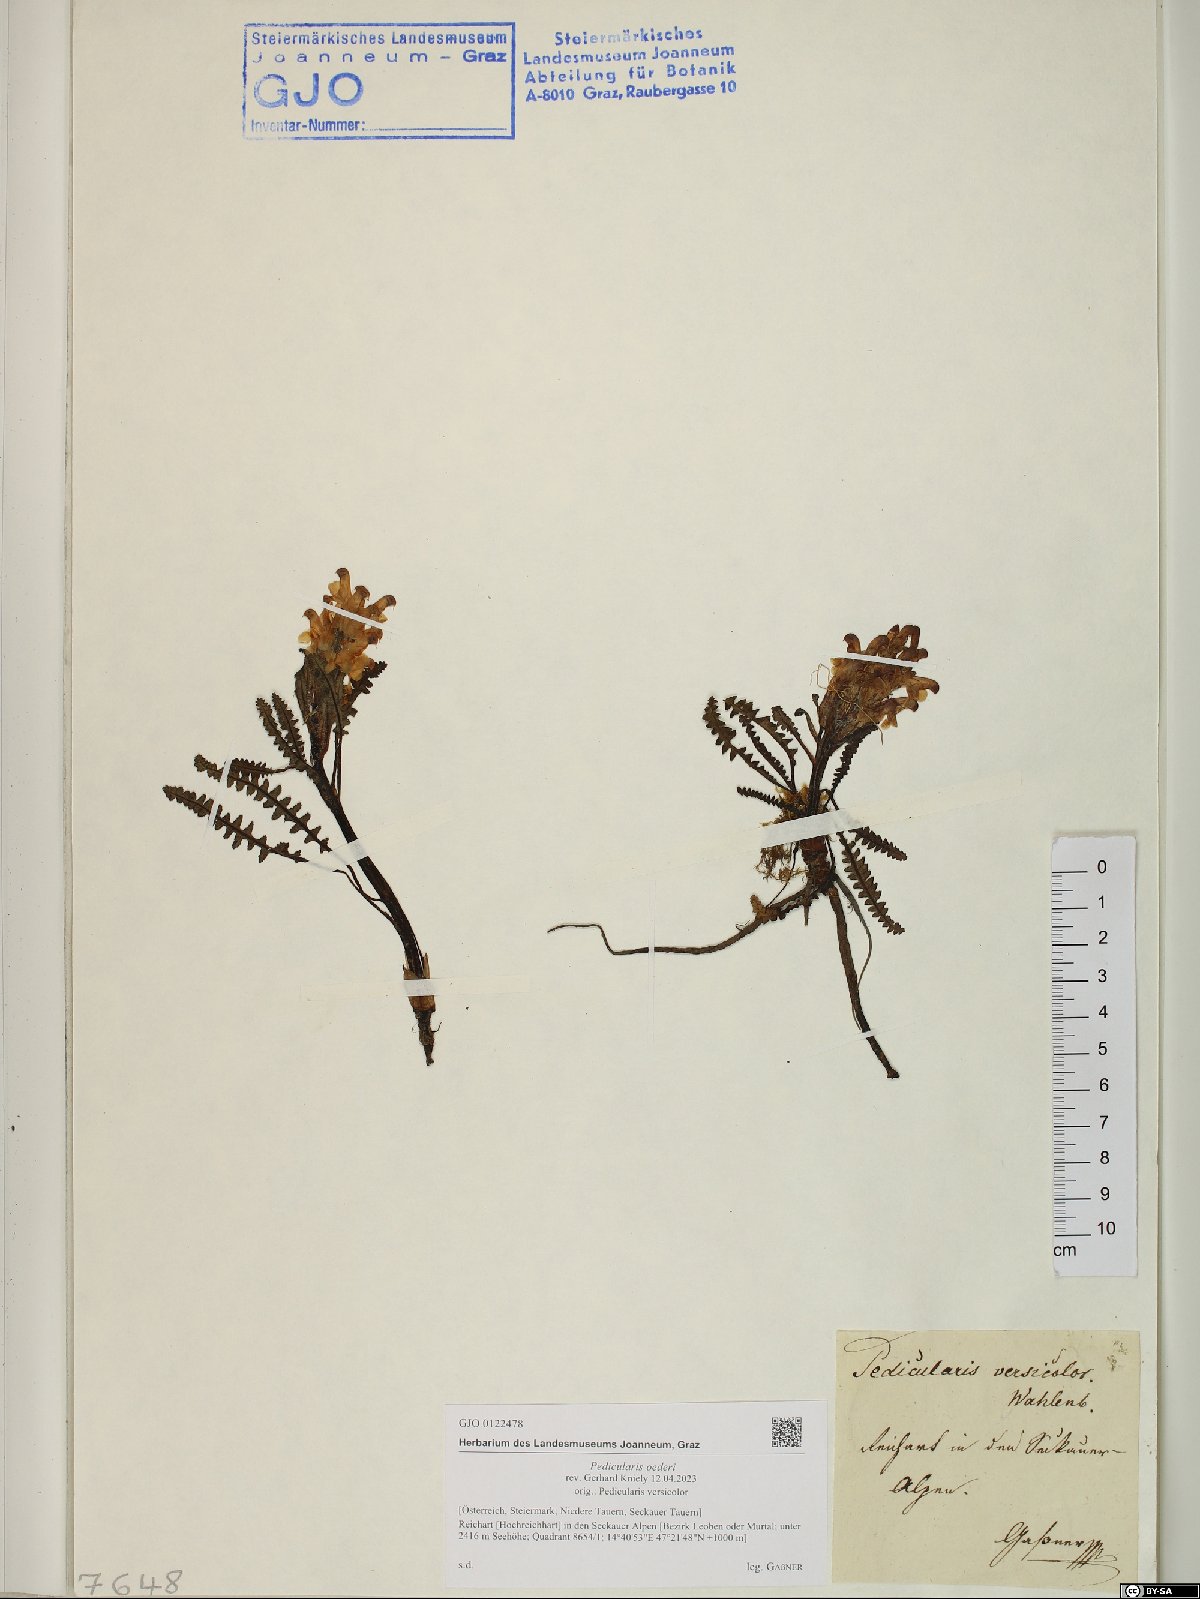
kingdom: Plantae
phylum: Tracheophyta
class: Magnoliopsida
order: Lamiales
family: Orobanchaceae
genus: Pedicularis
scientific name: Pedicularis oederi
